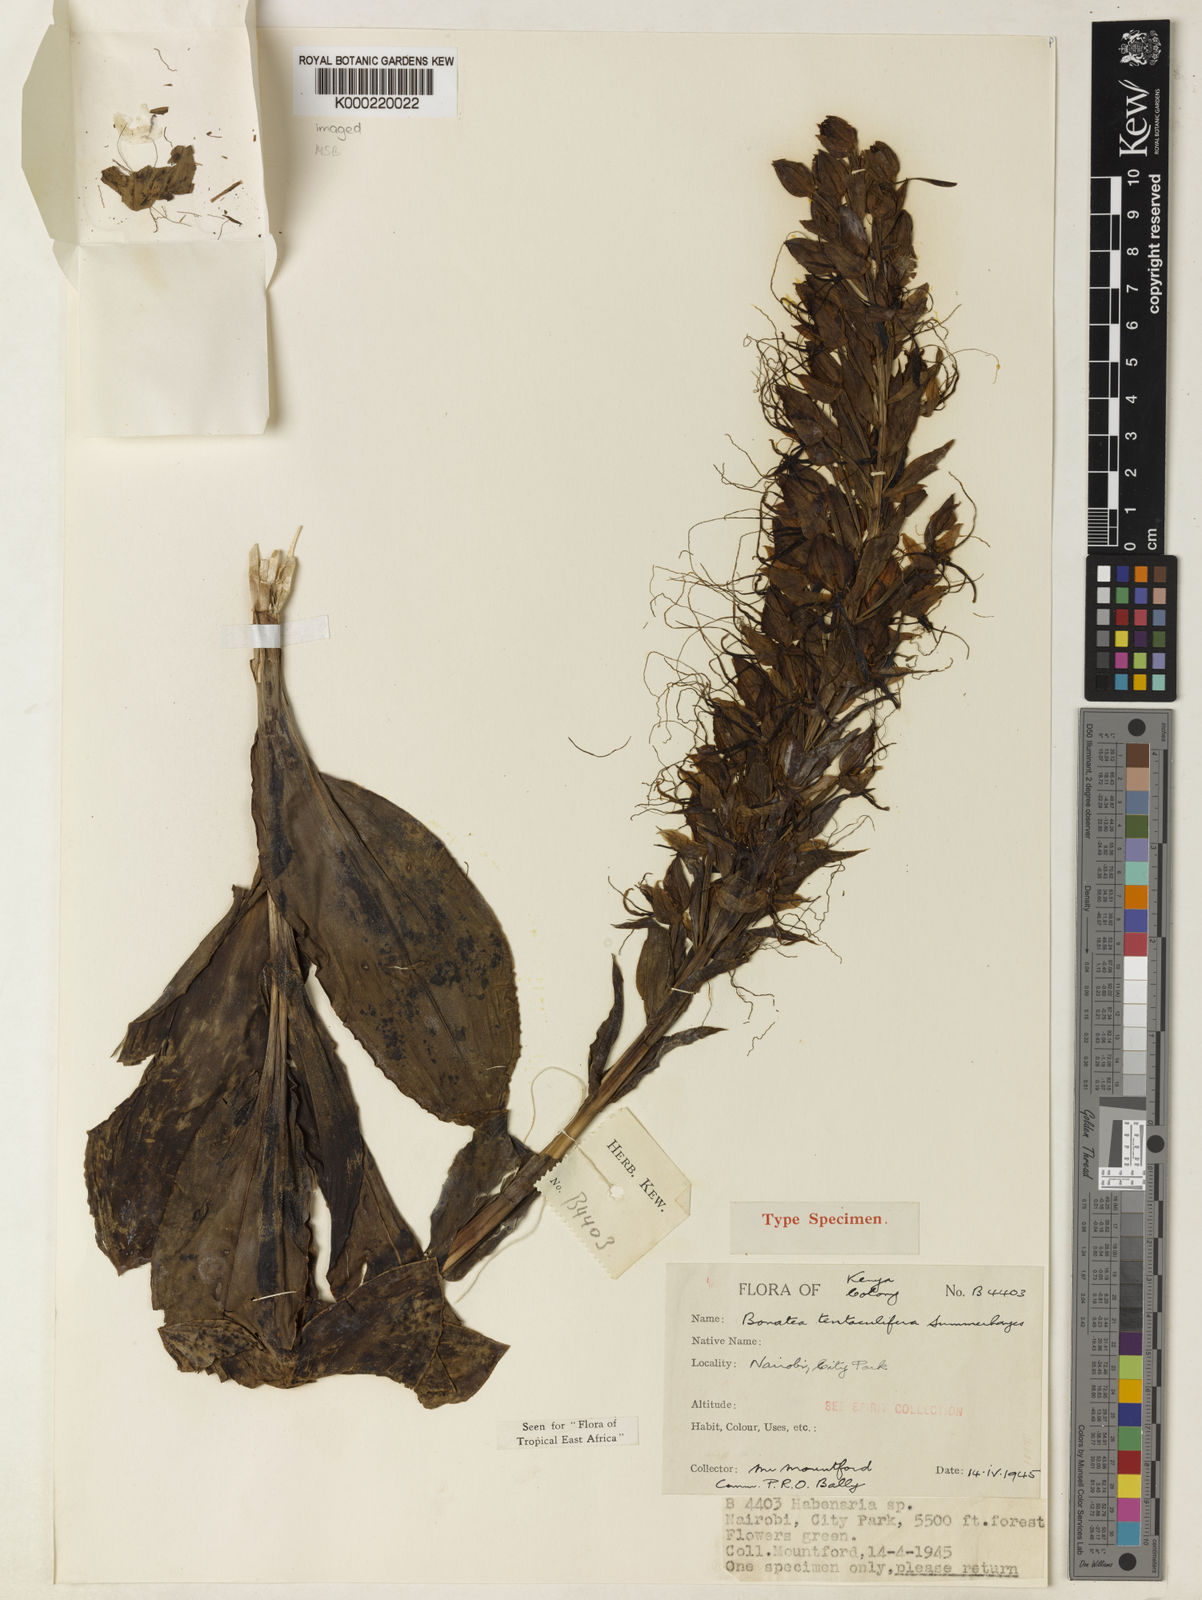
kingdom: Plantae
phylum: Tracheophyta
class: Liliopsida
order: Asparagales
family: Orchidaceae
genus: Habenaria
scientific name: Habenaria bonateoides
